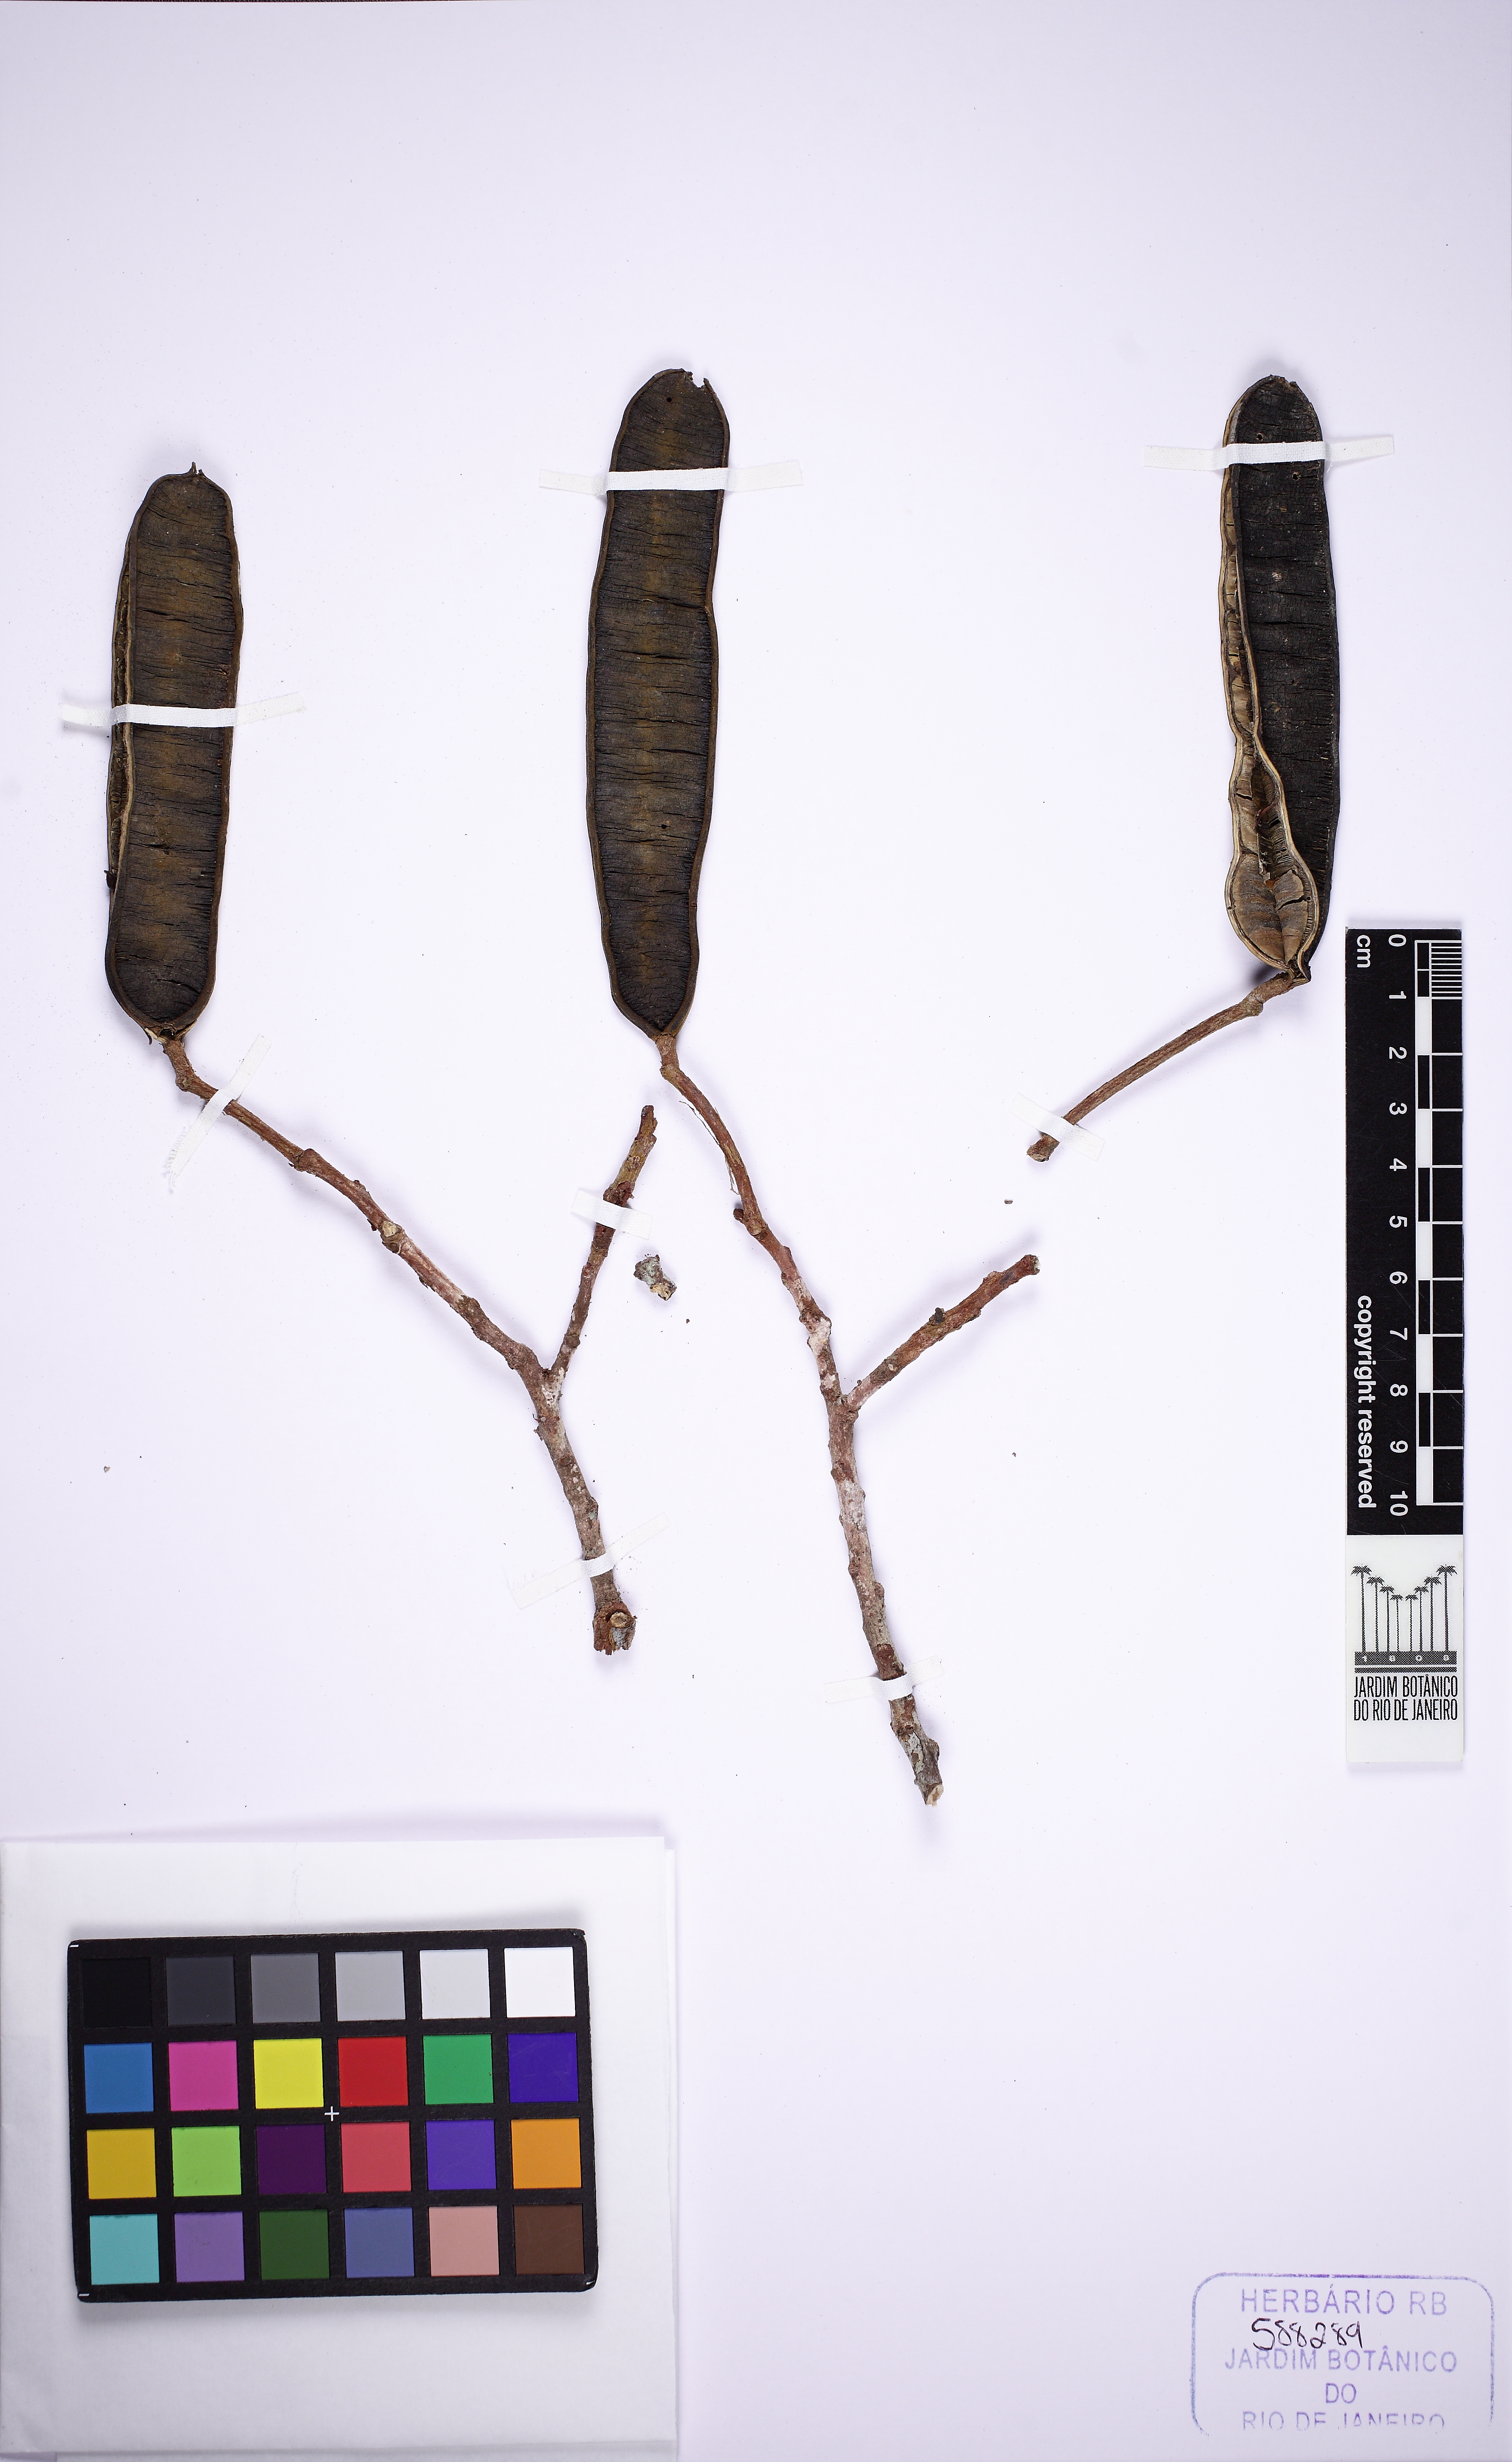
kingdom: Plantae
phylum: Tracheophyta
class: Magnoliopsida
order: Fabales
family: Fabaceae
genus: Balizia
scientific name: Balizia pedicellaris
